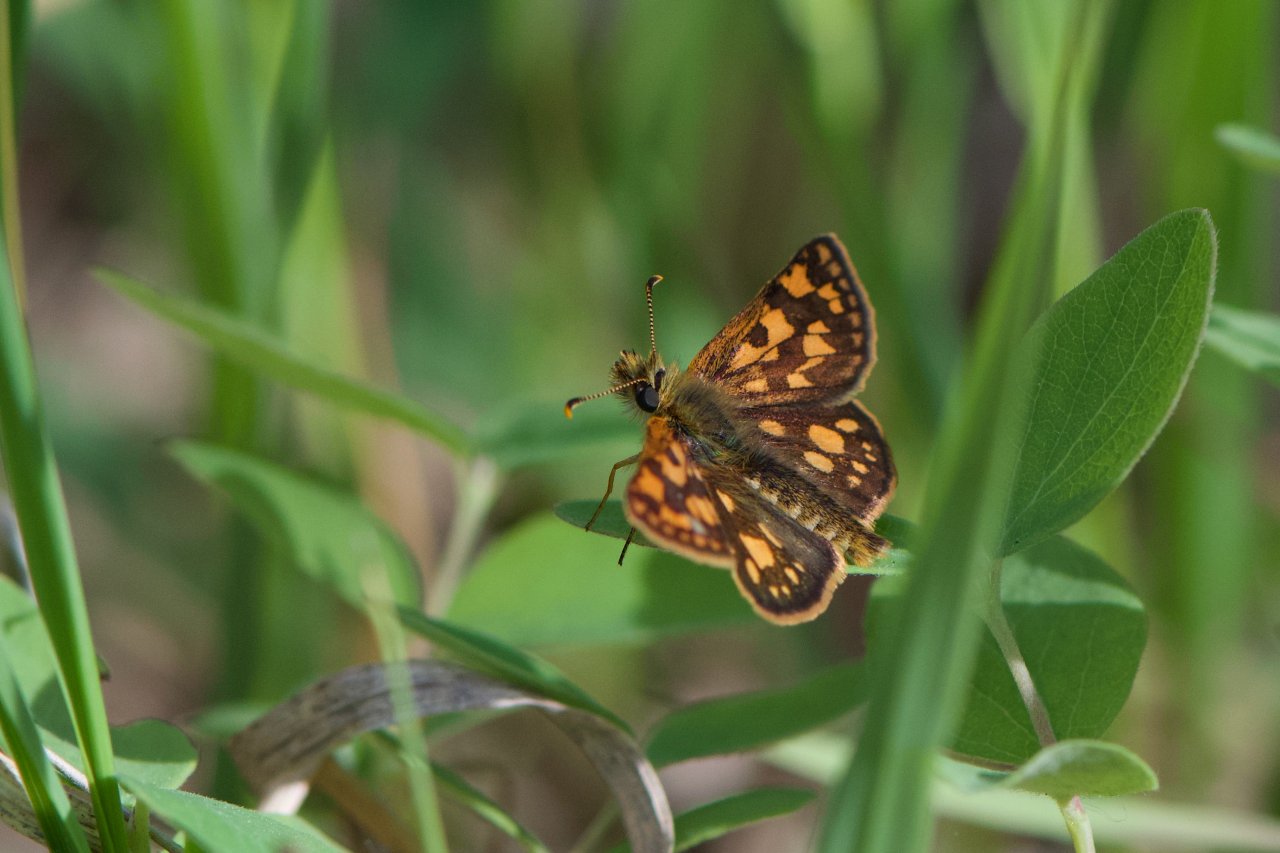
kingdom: Animalia
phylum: Arthropoda
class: Insecta
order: Lepidoptera
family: Hesperiidae
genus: Carterocephalus
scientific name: Carterocephalus palaemon
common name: Chequered Skipper
